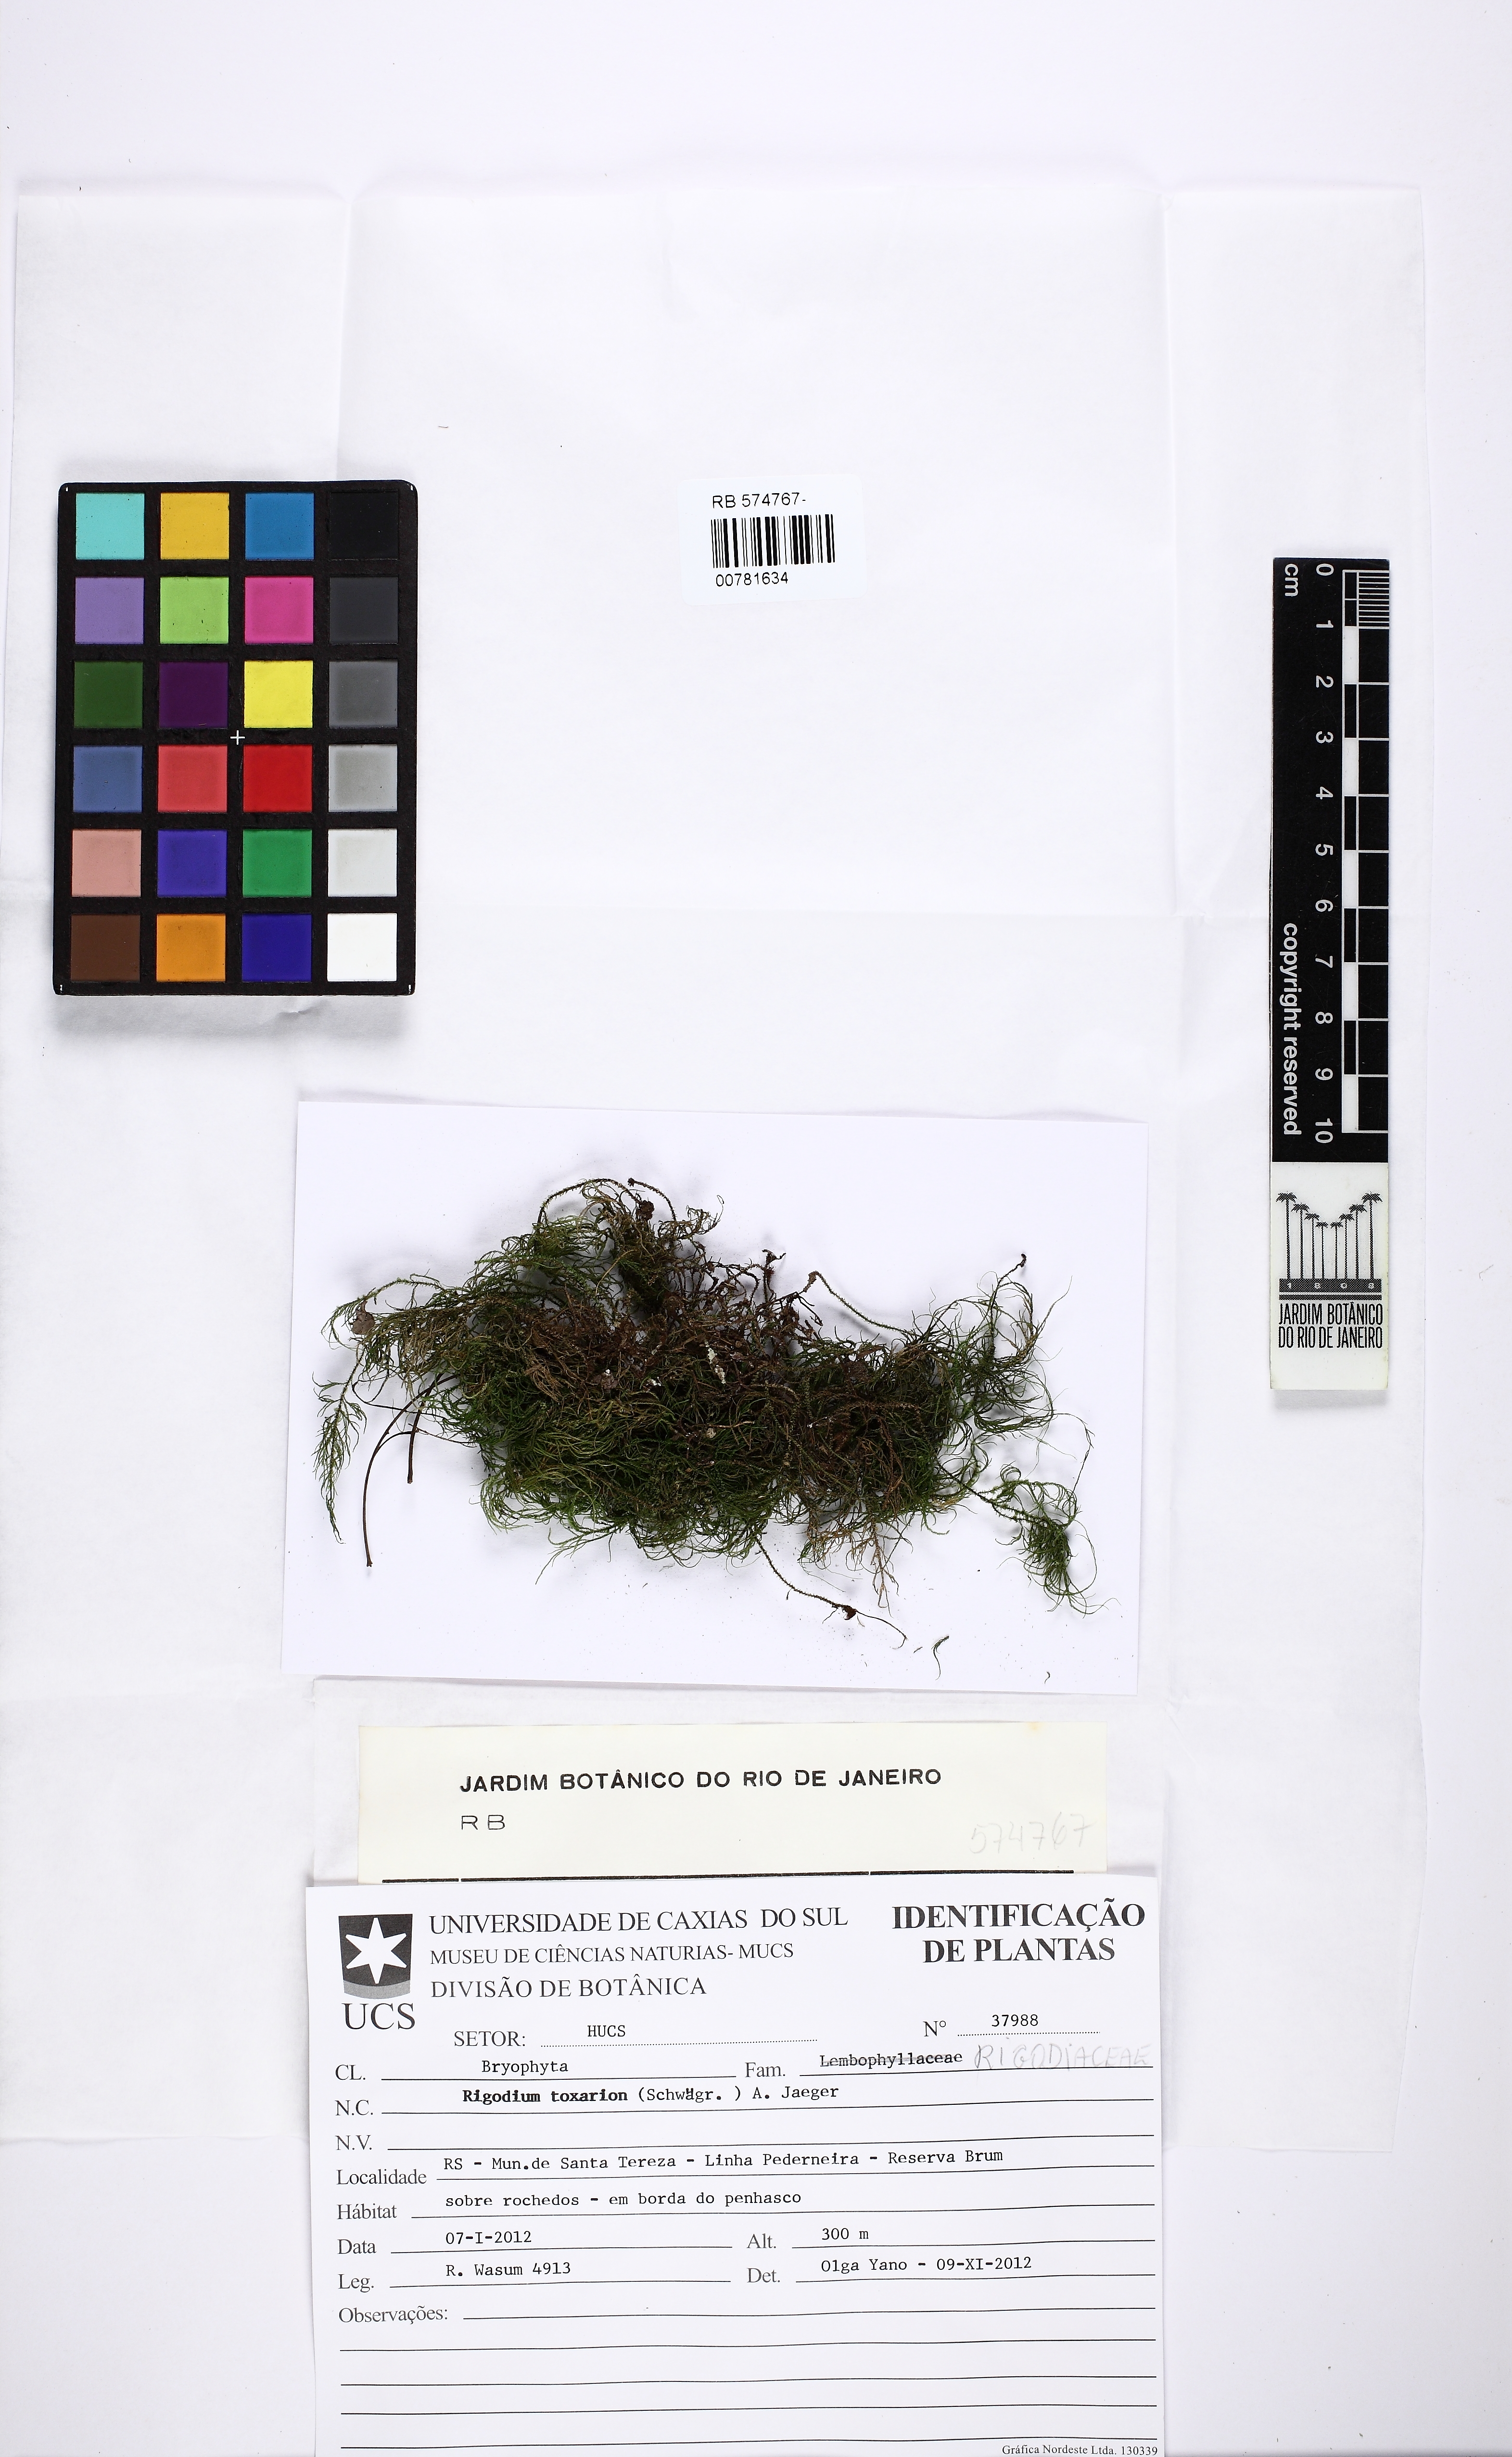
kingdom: Plantae
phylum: Bryophyta
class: Bryopsida
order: Hypnales
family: Lembophyllaceae
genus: Rigodium
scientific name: Rigodium toxarion
